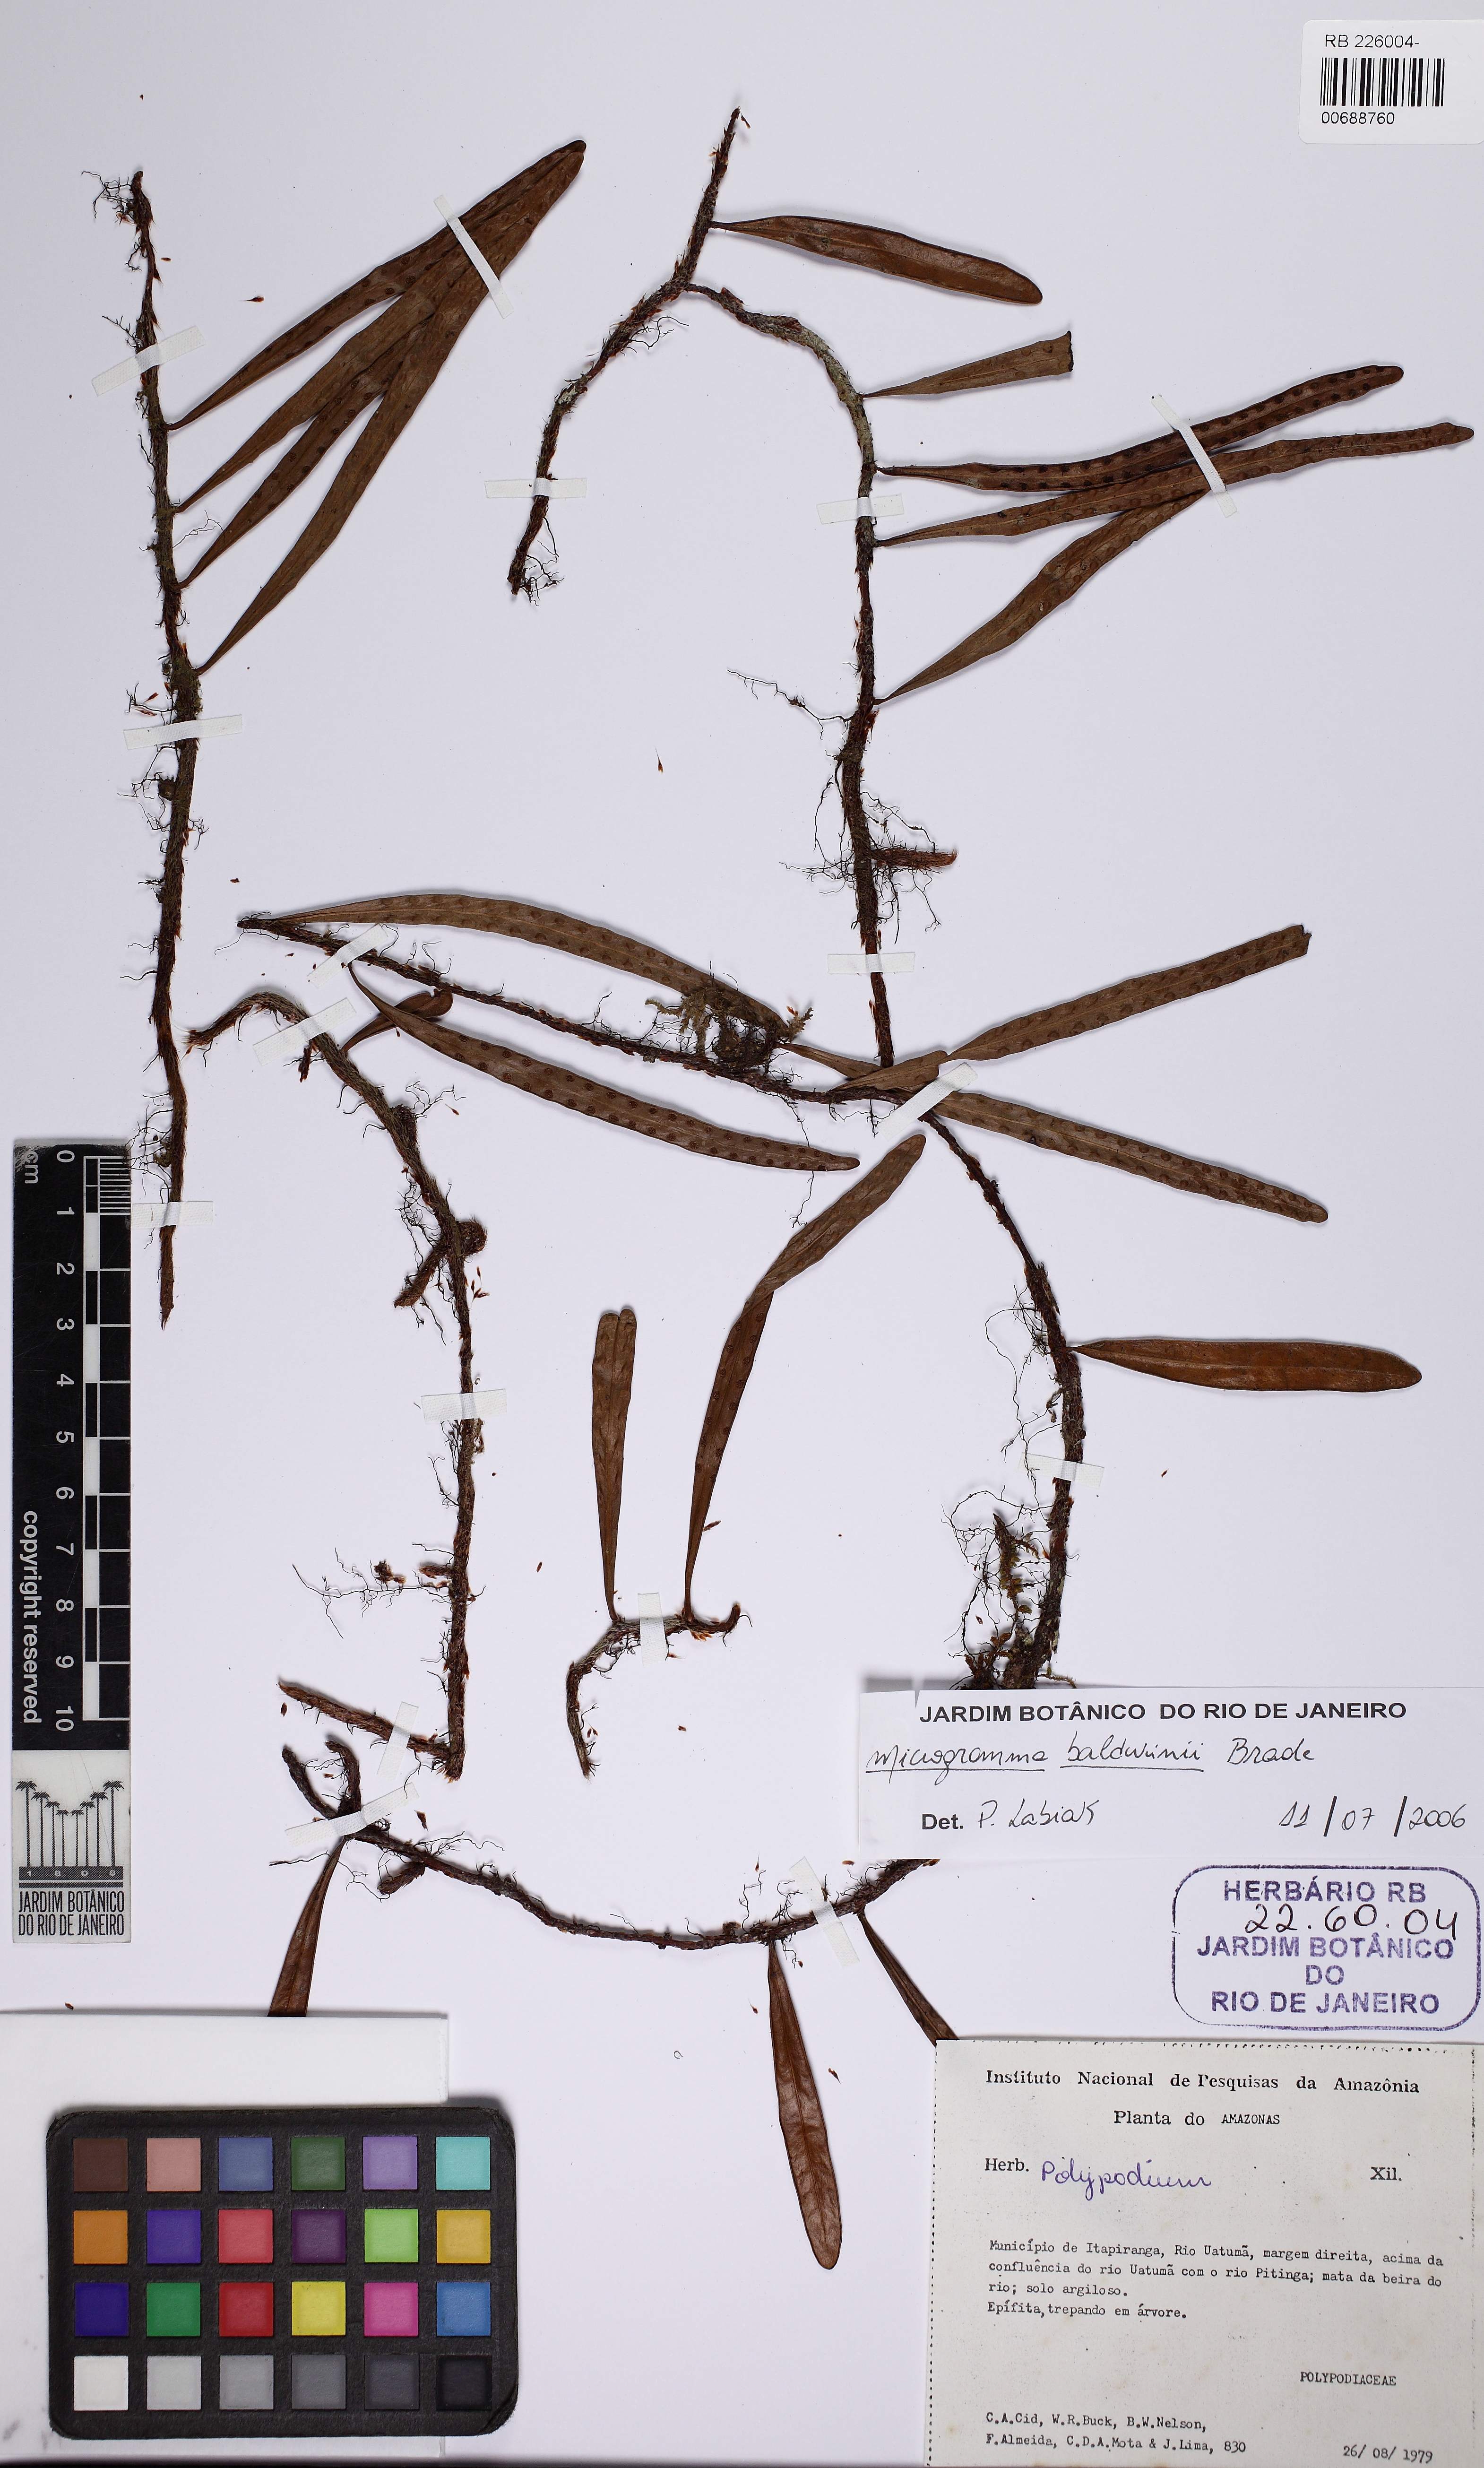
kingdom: Plantae
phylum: Tracheophyta
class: Polypodiopsida
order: Polypodiales
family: Polypodiaceae
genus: Microgramma
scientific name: Microgramma baldwinii
